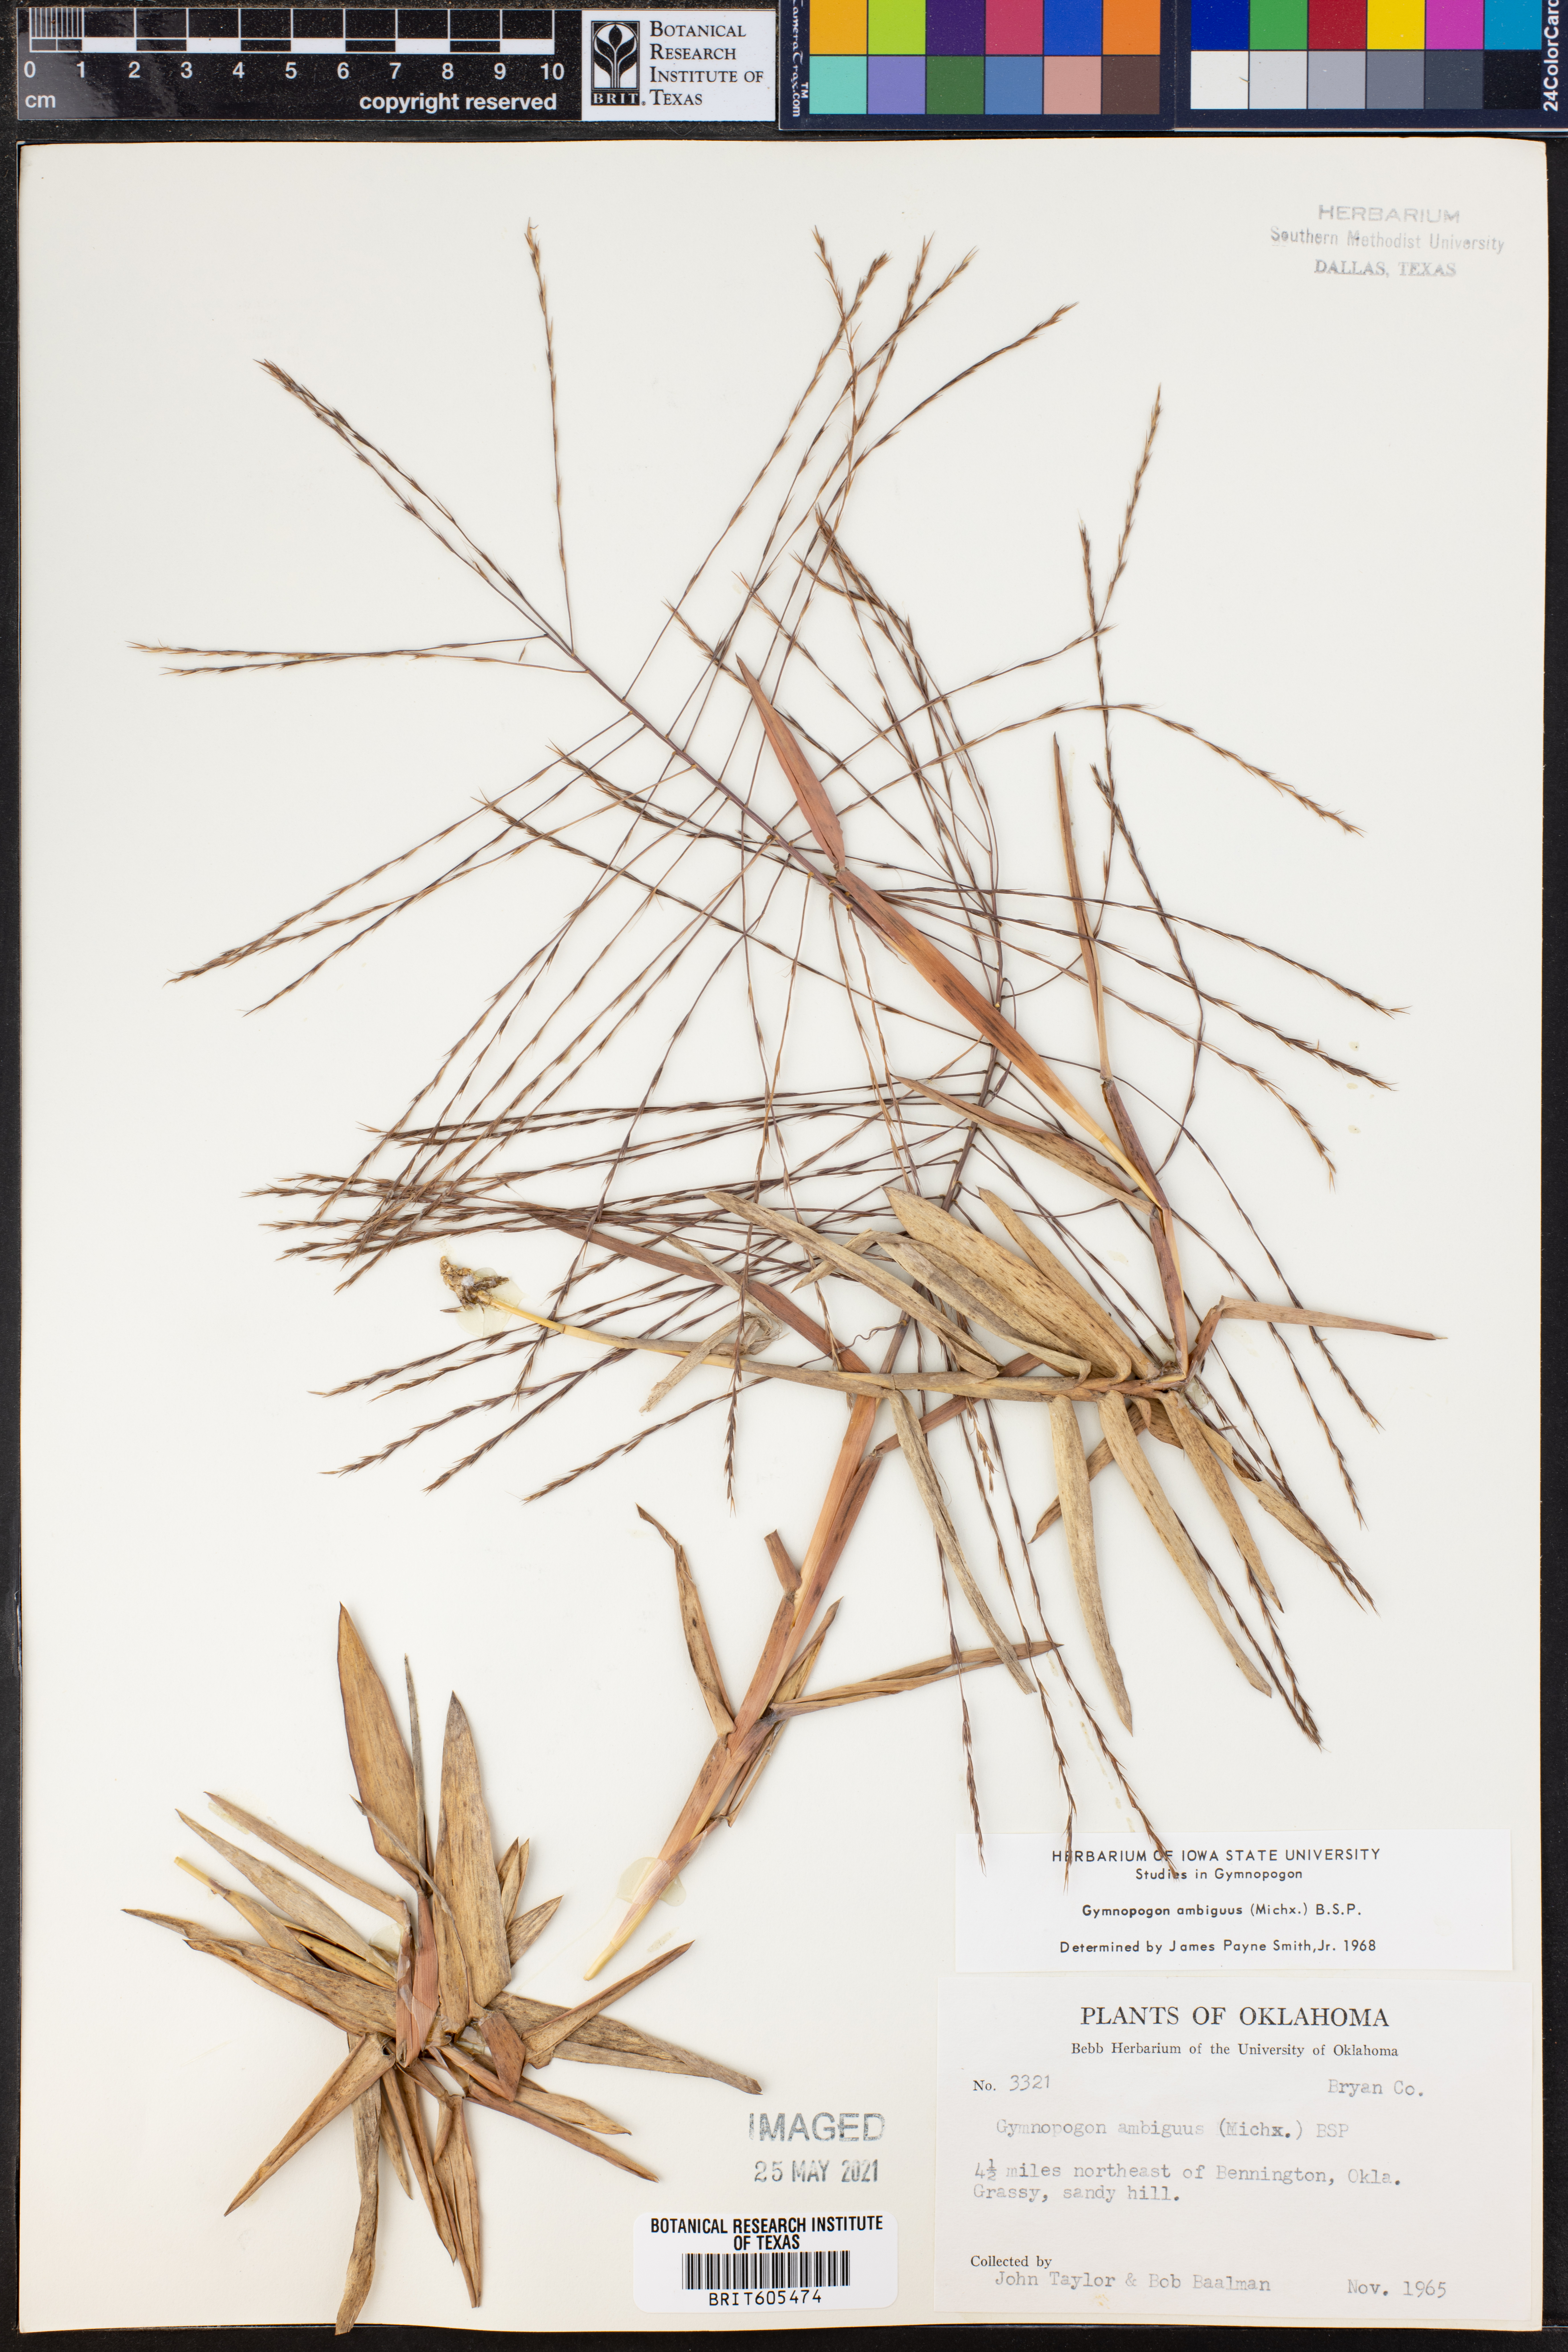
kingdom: Plantae
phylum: Tracheophyta
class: Liliopsida
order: Poales
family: Poaceae
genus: Gymnopogon
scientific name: Gymnopogon ambiguus
